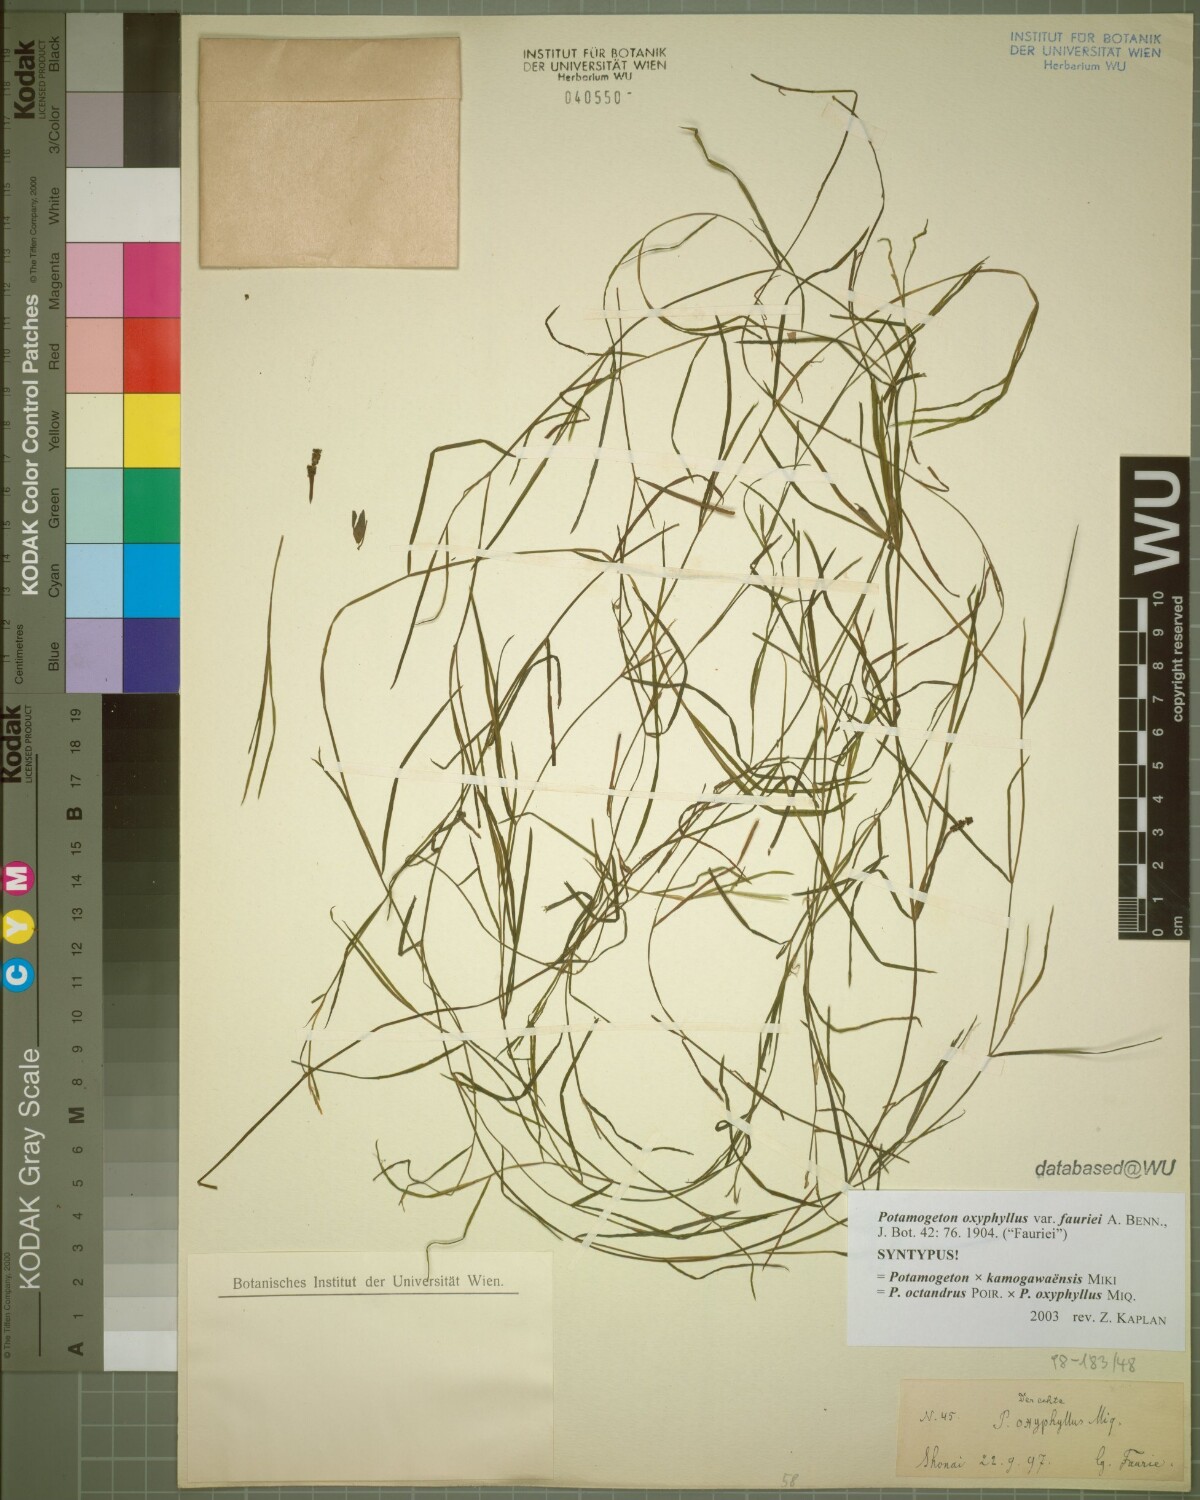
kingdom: Plantae
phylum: Tracheophyta
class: Liliopsida
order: Alismatales
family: Potamogetonaceae
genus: Potamogeton
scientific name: Potamogeton fauriei
